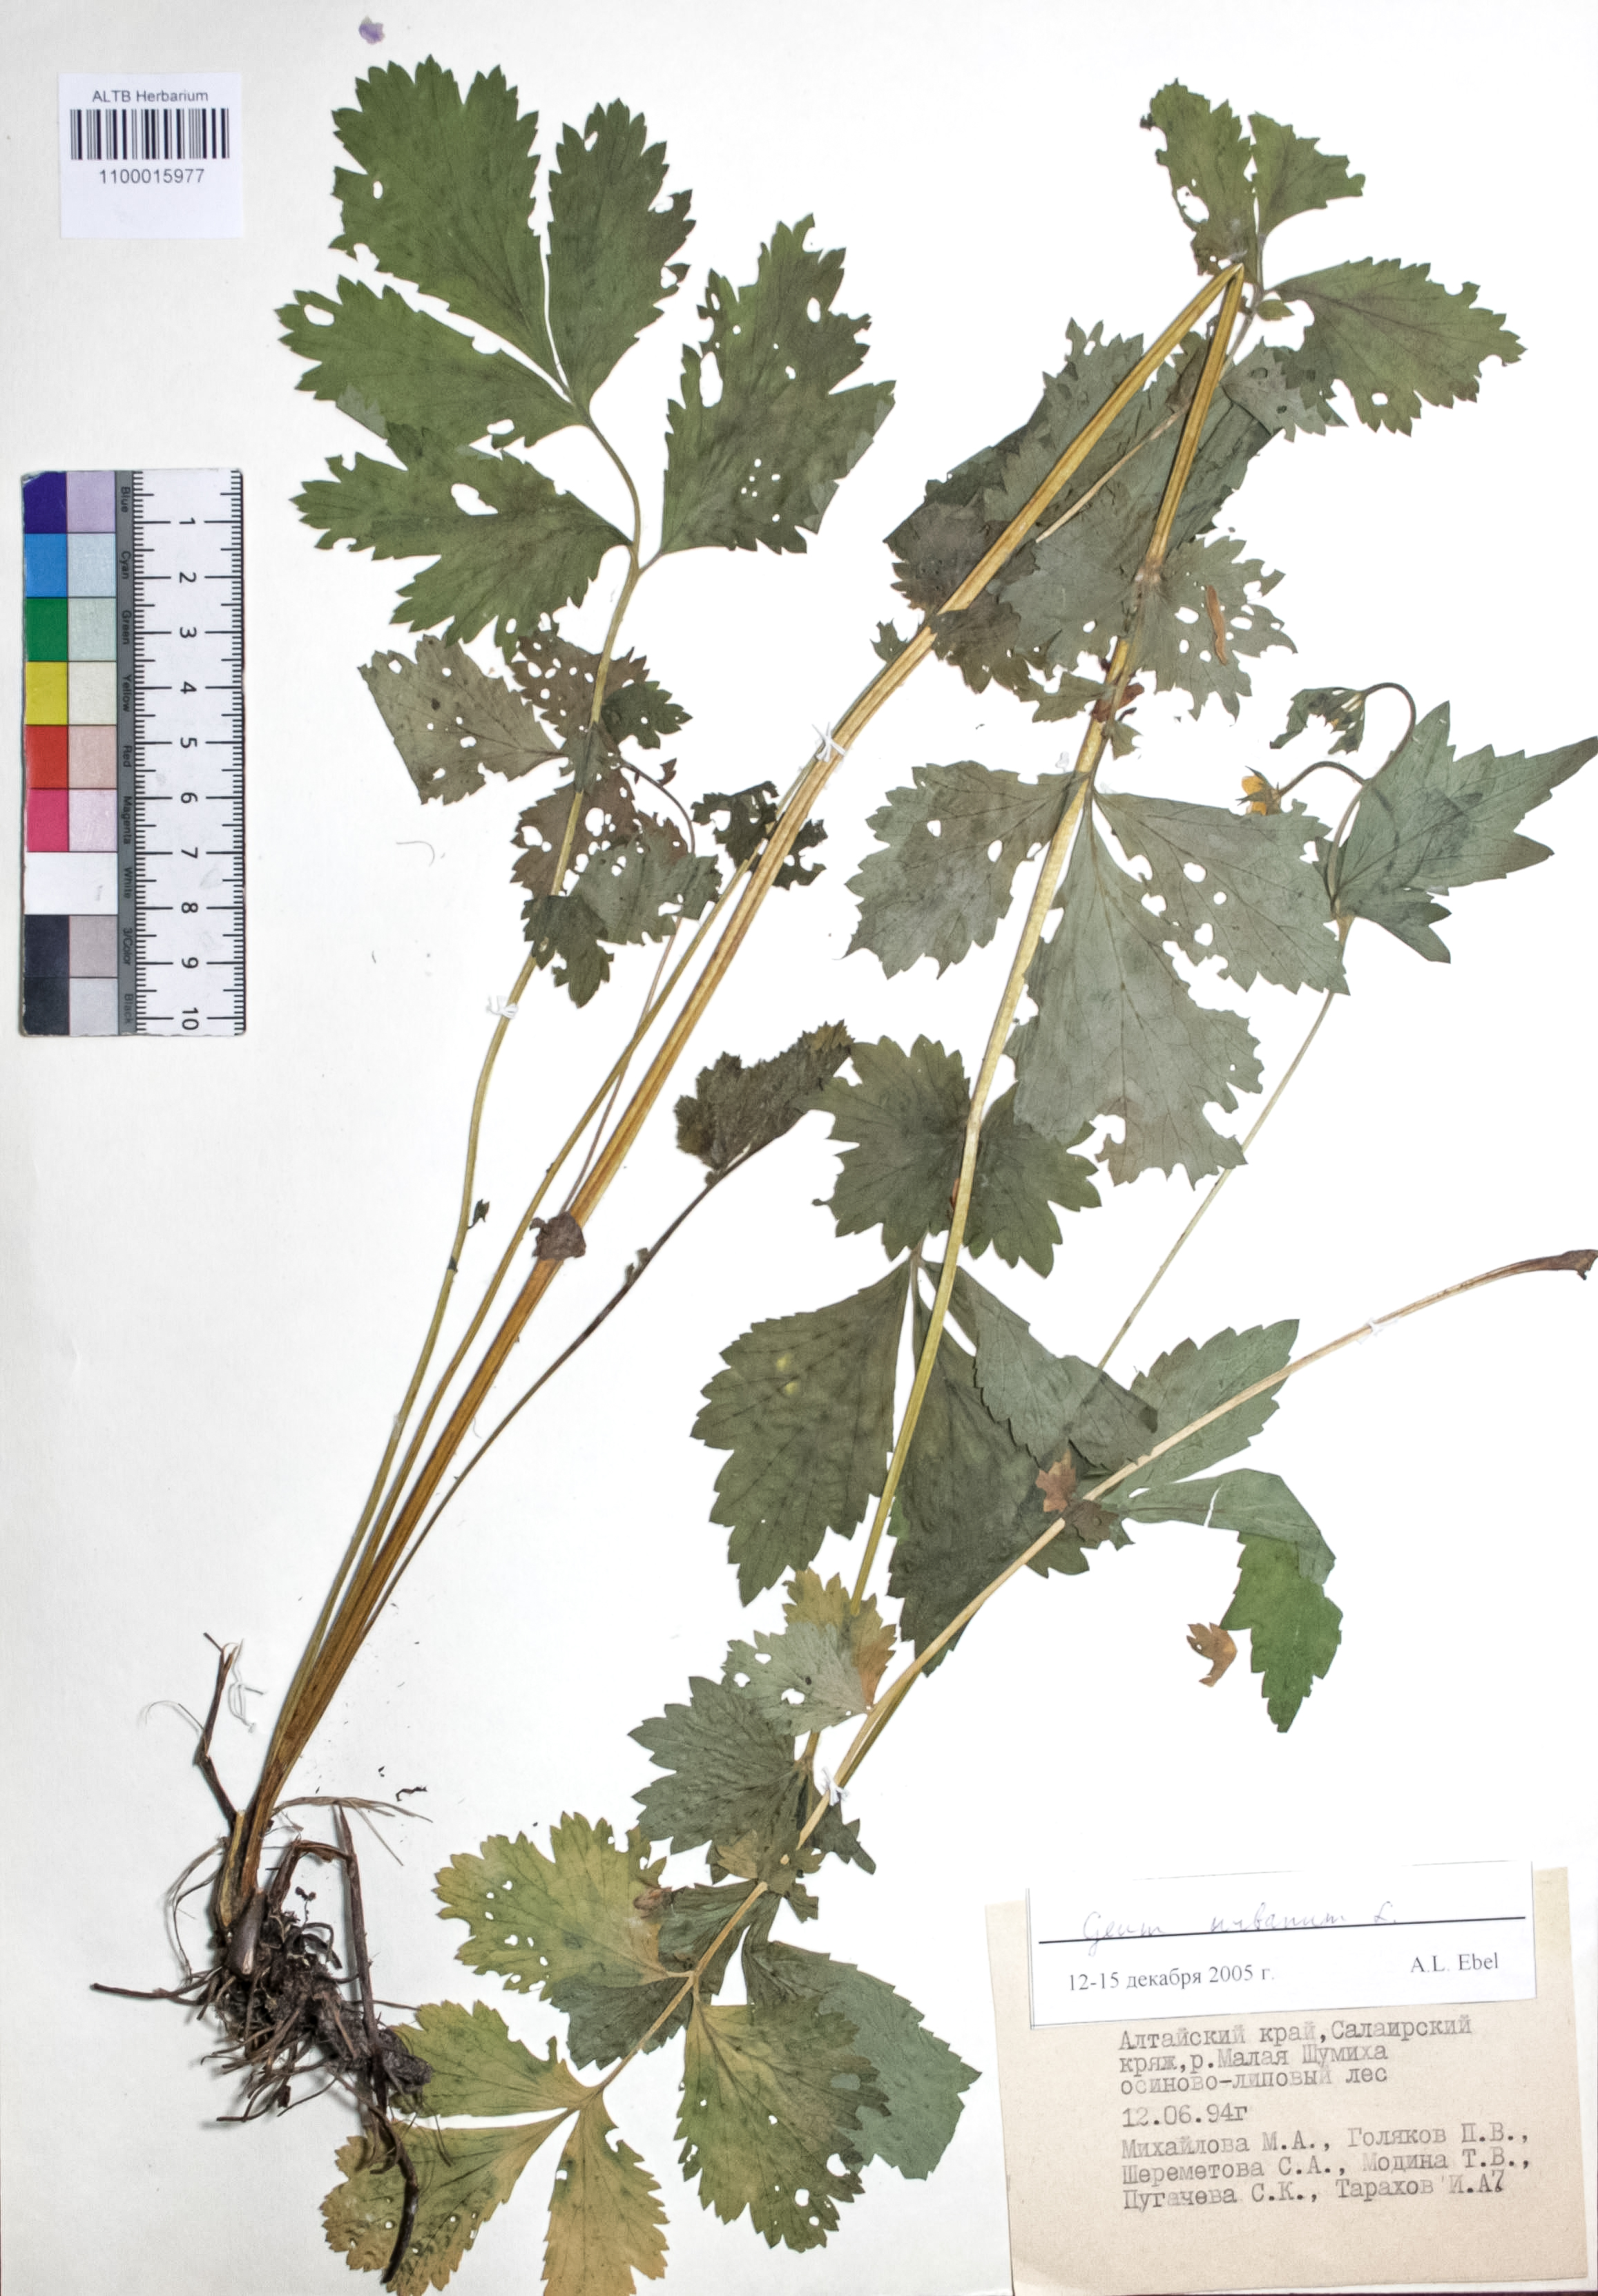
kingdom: Plantae
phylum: Tracheophyta
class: Magnoliopsida
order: Rosales
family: Rosaceae
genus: Geum
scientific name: Geum urbanum
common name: Wood avens
